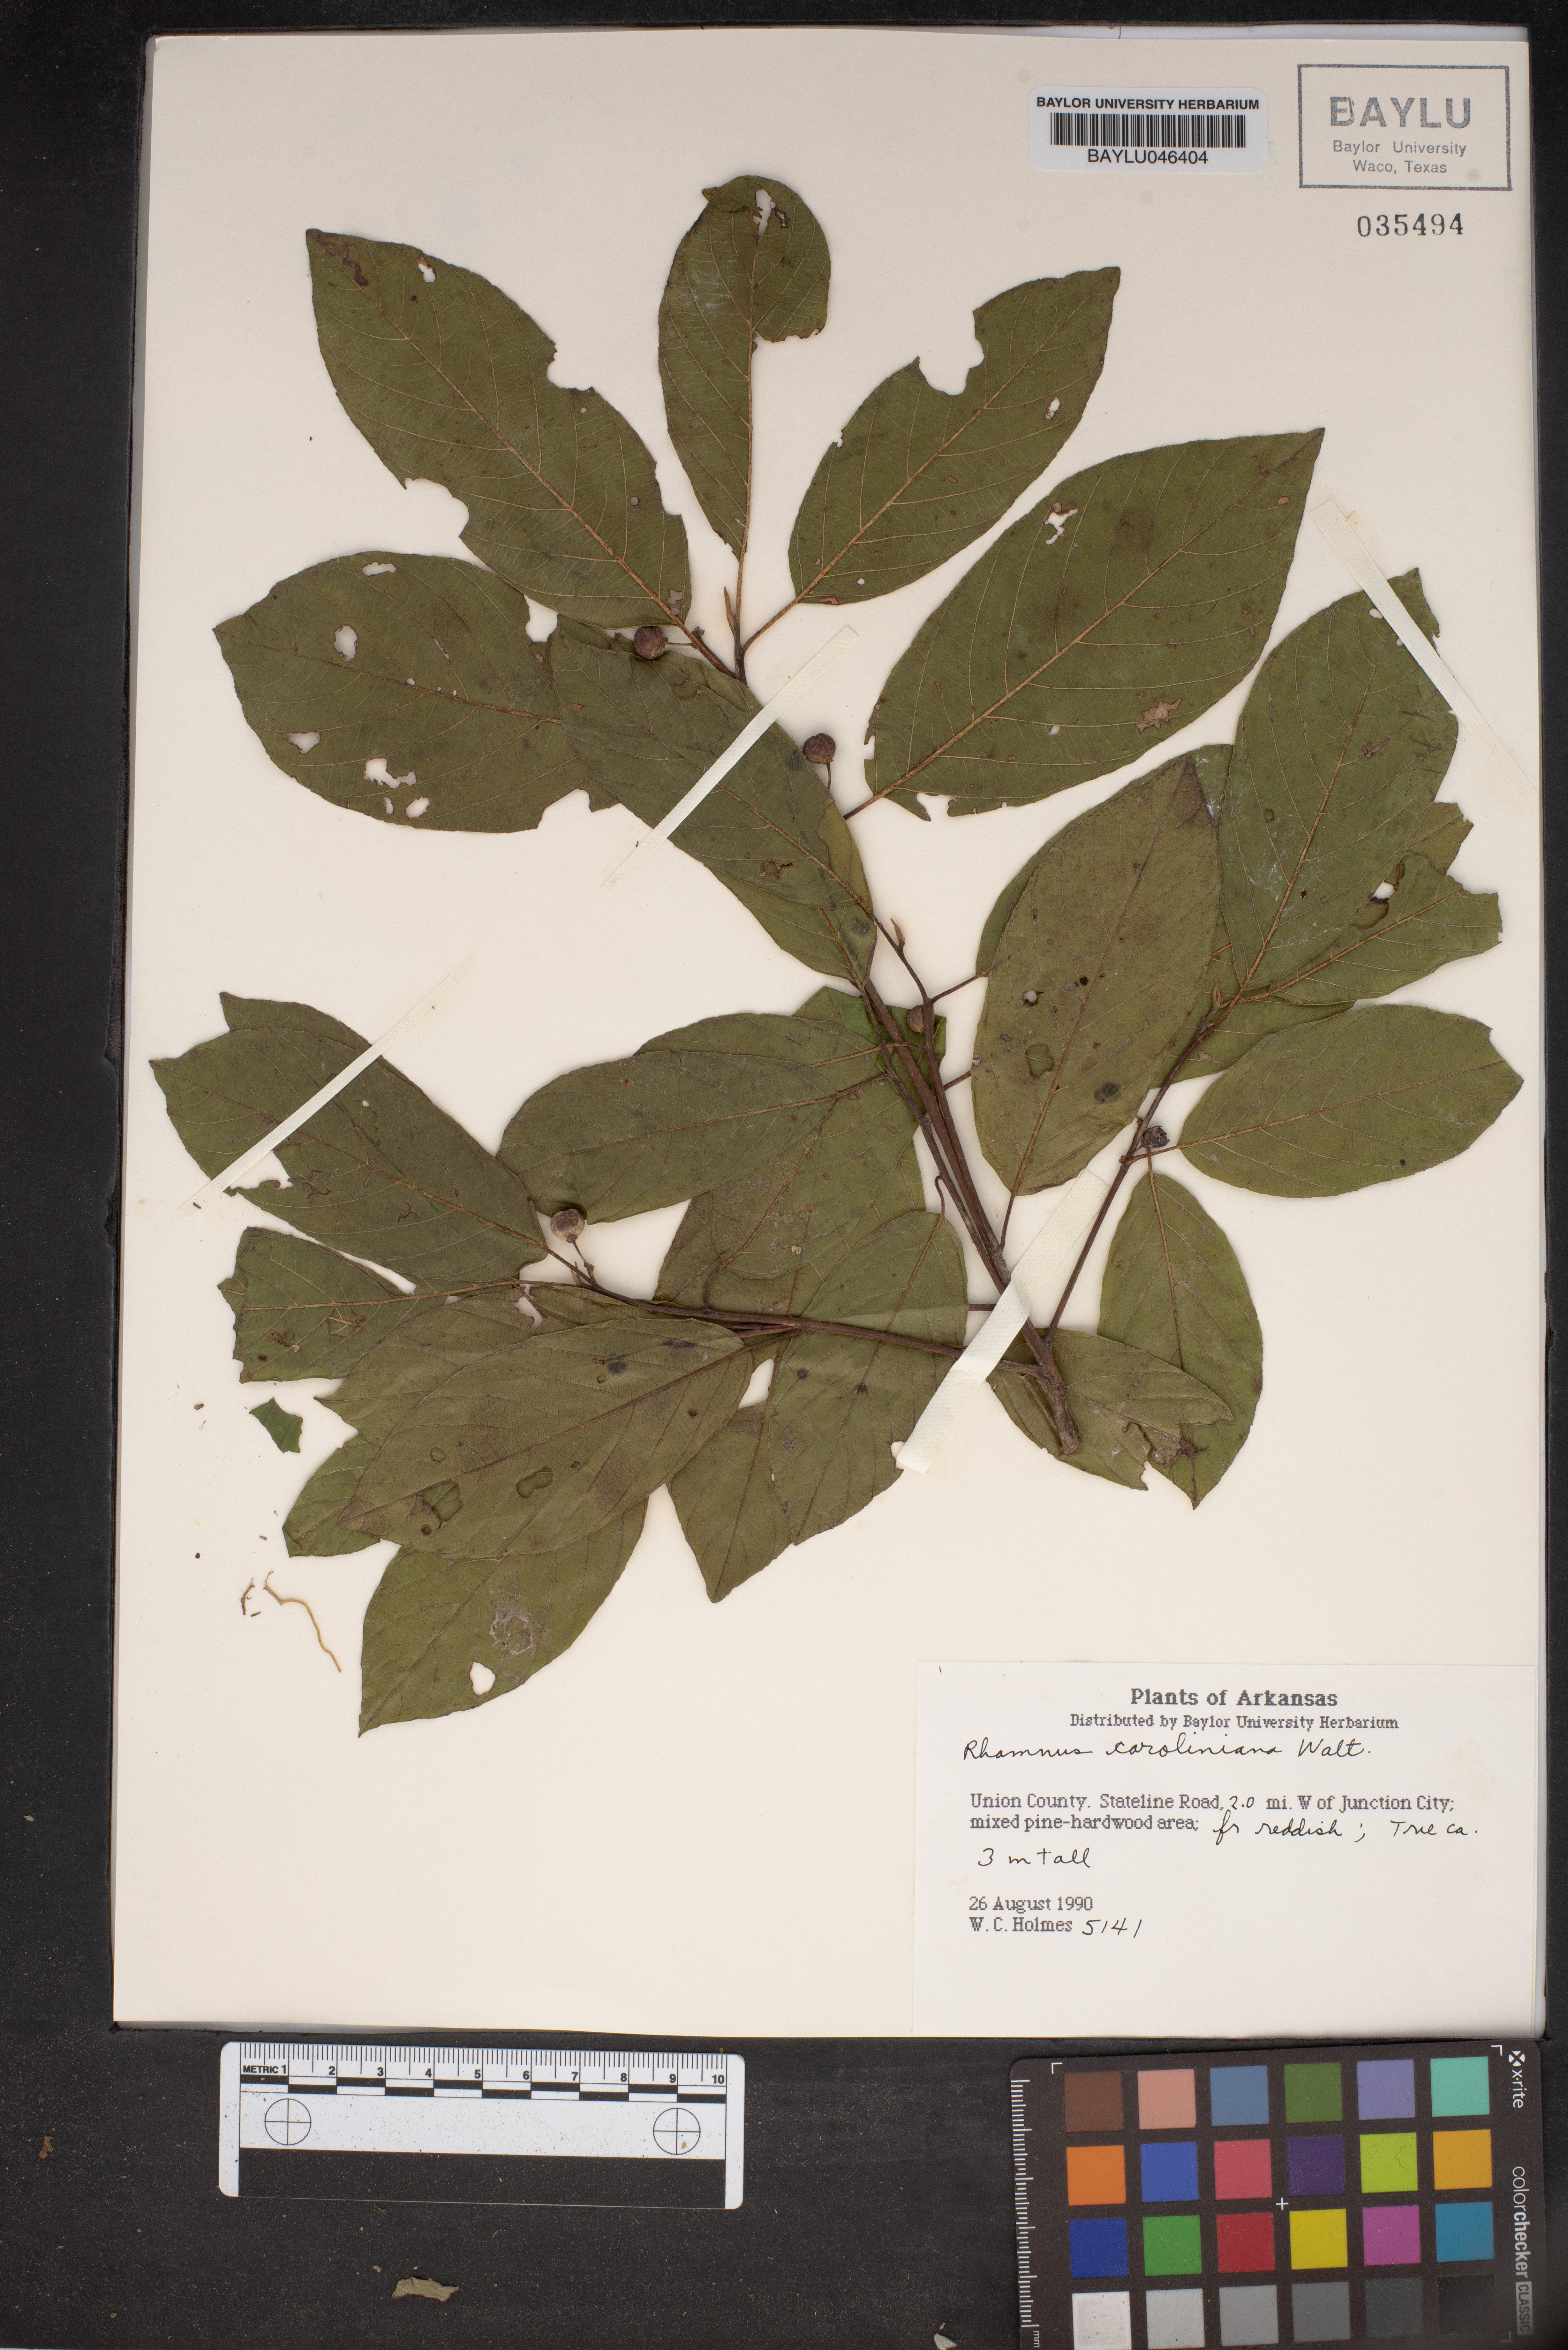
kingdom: Plantae
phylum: Tracheophyta
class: Magnoliopsida
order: Rosales
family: Rhamnaceae
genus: Frangula
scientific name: Frangula caroliniana
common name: Carolina buckthorn
